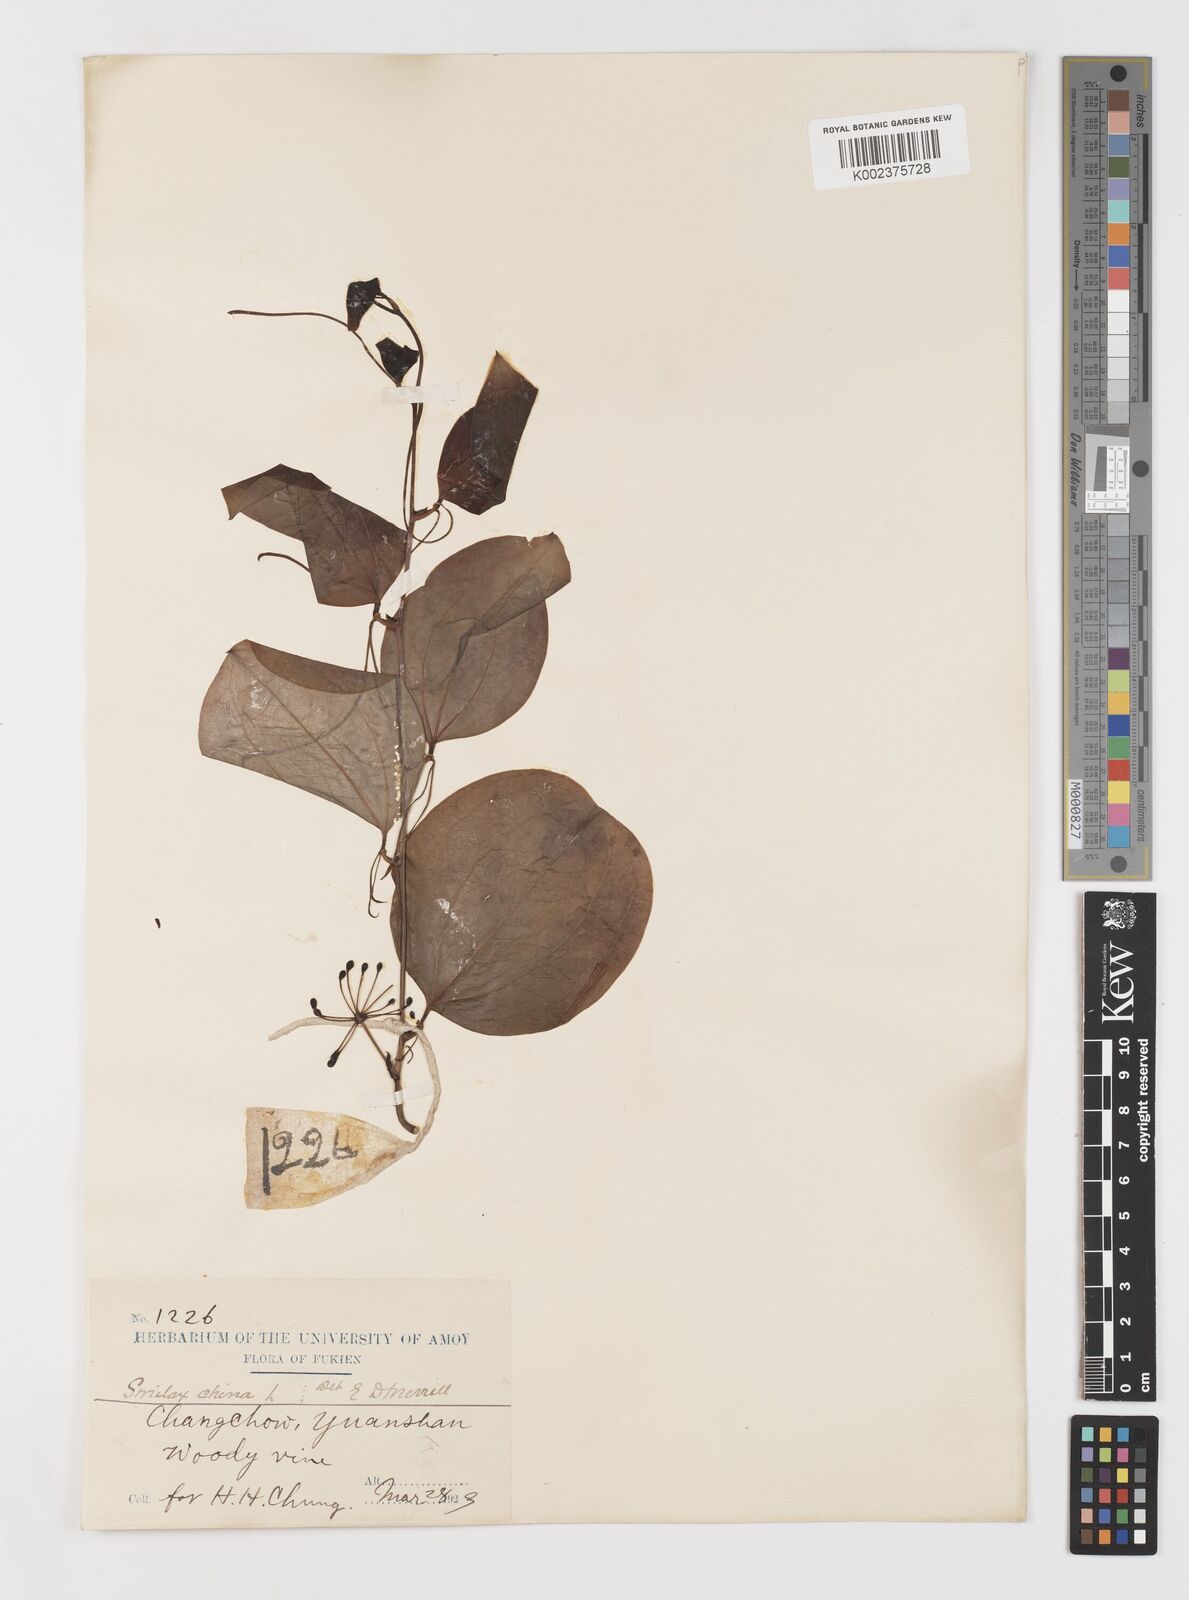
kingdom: Plantae
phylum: Tracheophyta
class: Liliopsida
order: Liliales
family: Smilacaceae
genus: Smilax
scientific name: Smilax
